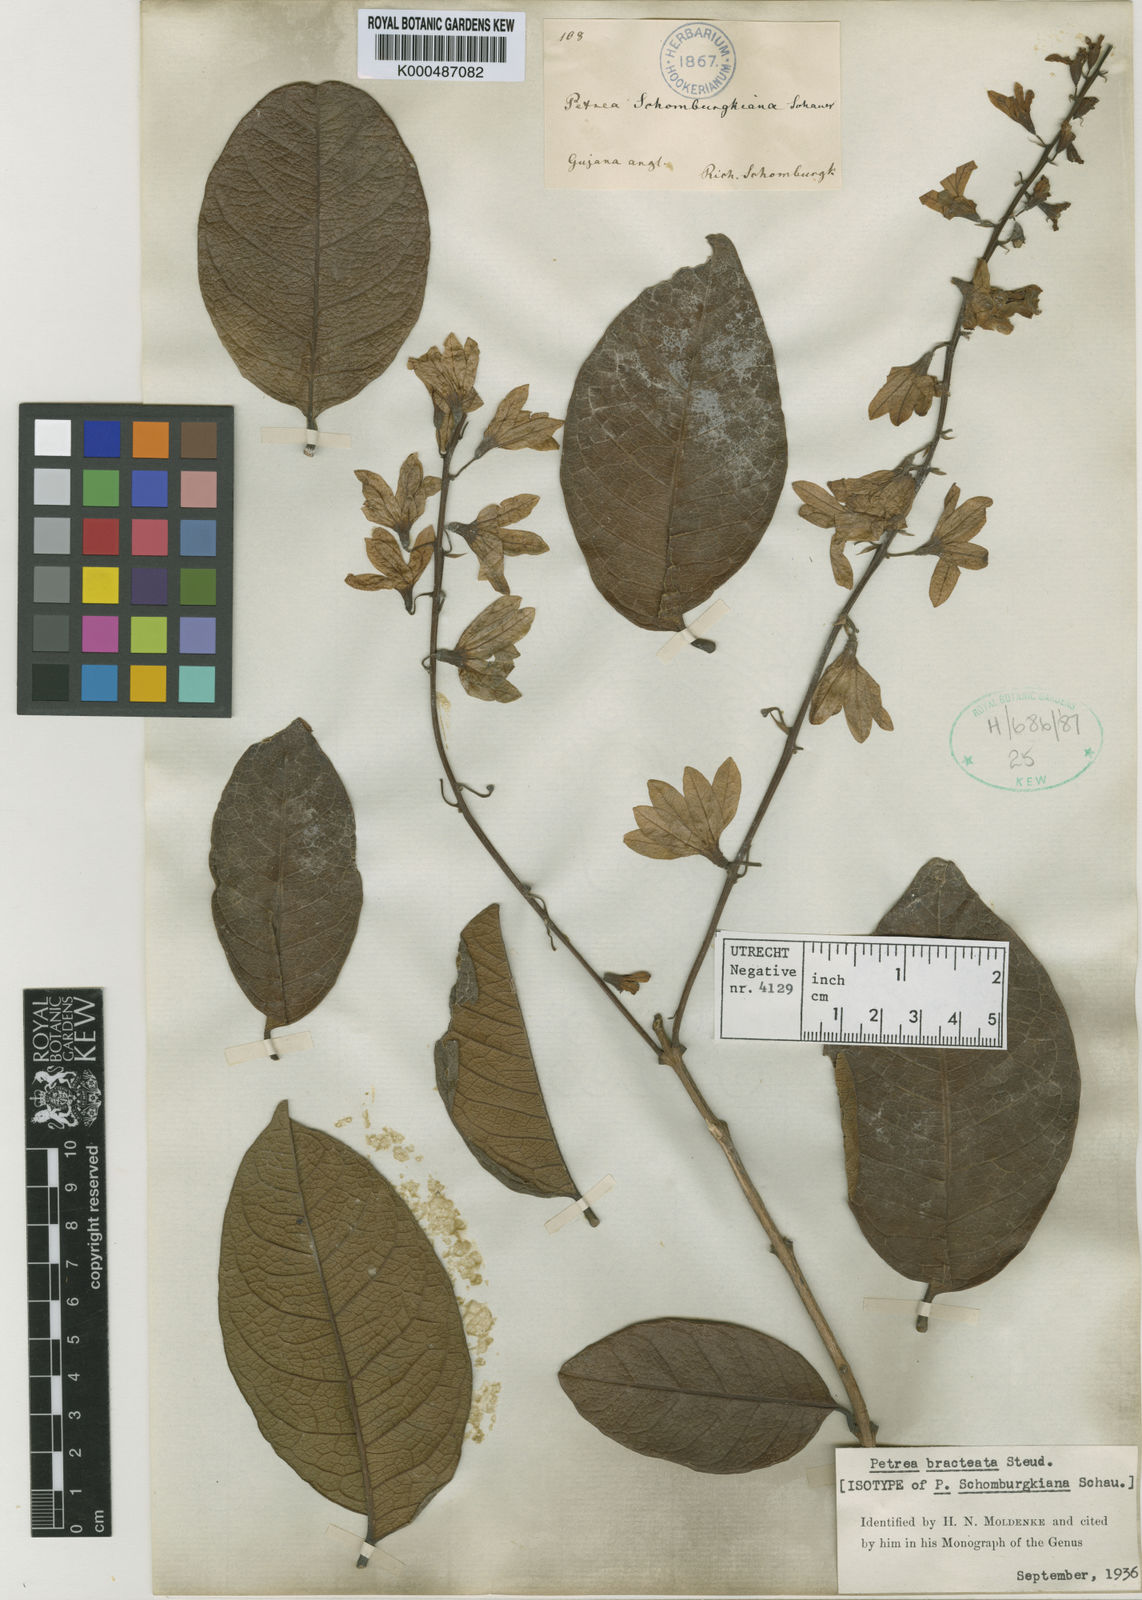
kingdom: Plantae
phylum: Tracheophyta
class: Magnoliopsida
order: Lamiales
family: Verbenaceae
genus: Petrea
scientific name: Petrea bracteata
